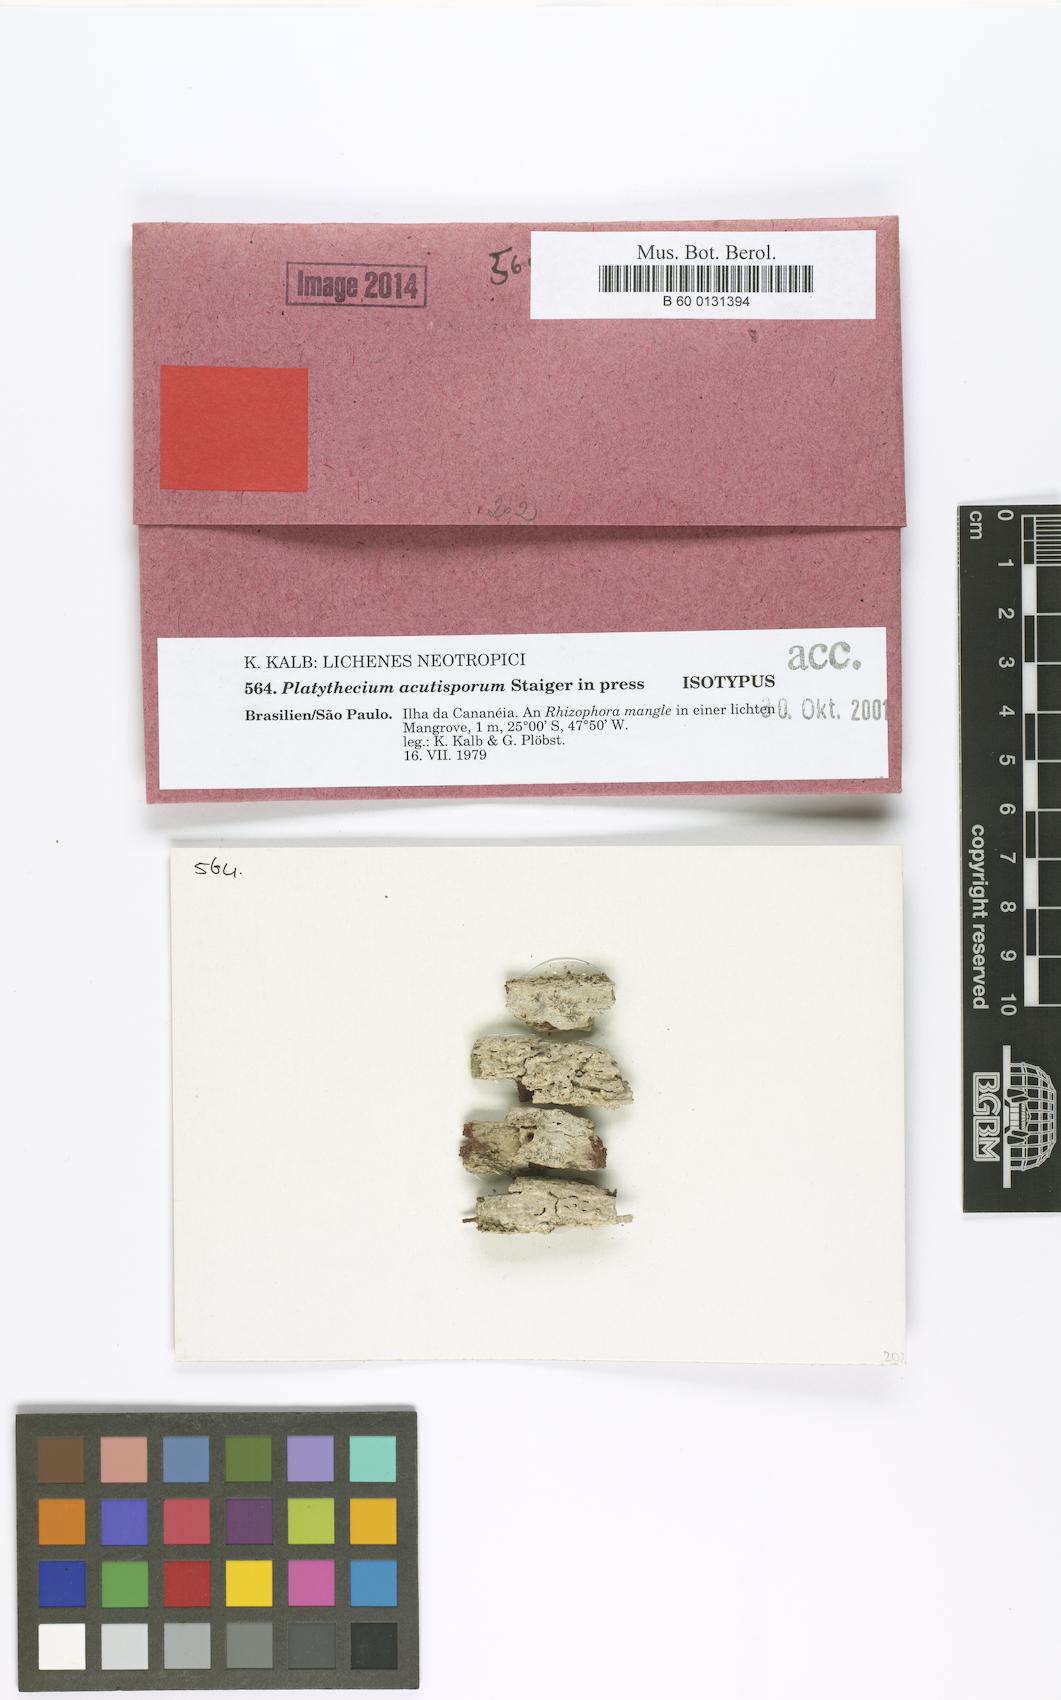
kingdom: Fungi
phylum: Ascomycota
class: Lecanoromycetes
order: Ostropales
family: Graphidaceae
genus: Platythecium
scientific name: Platythecium acutisporum
